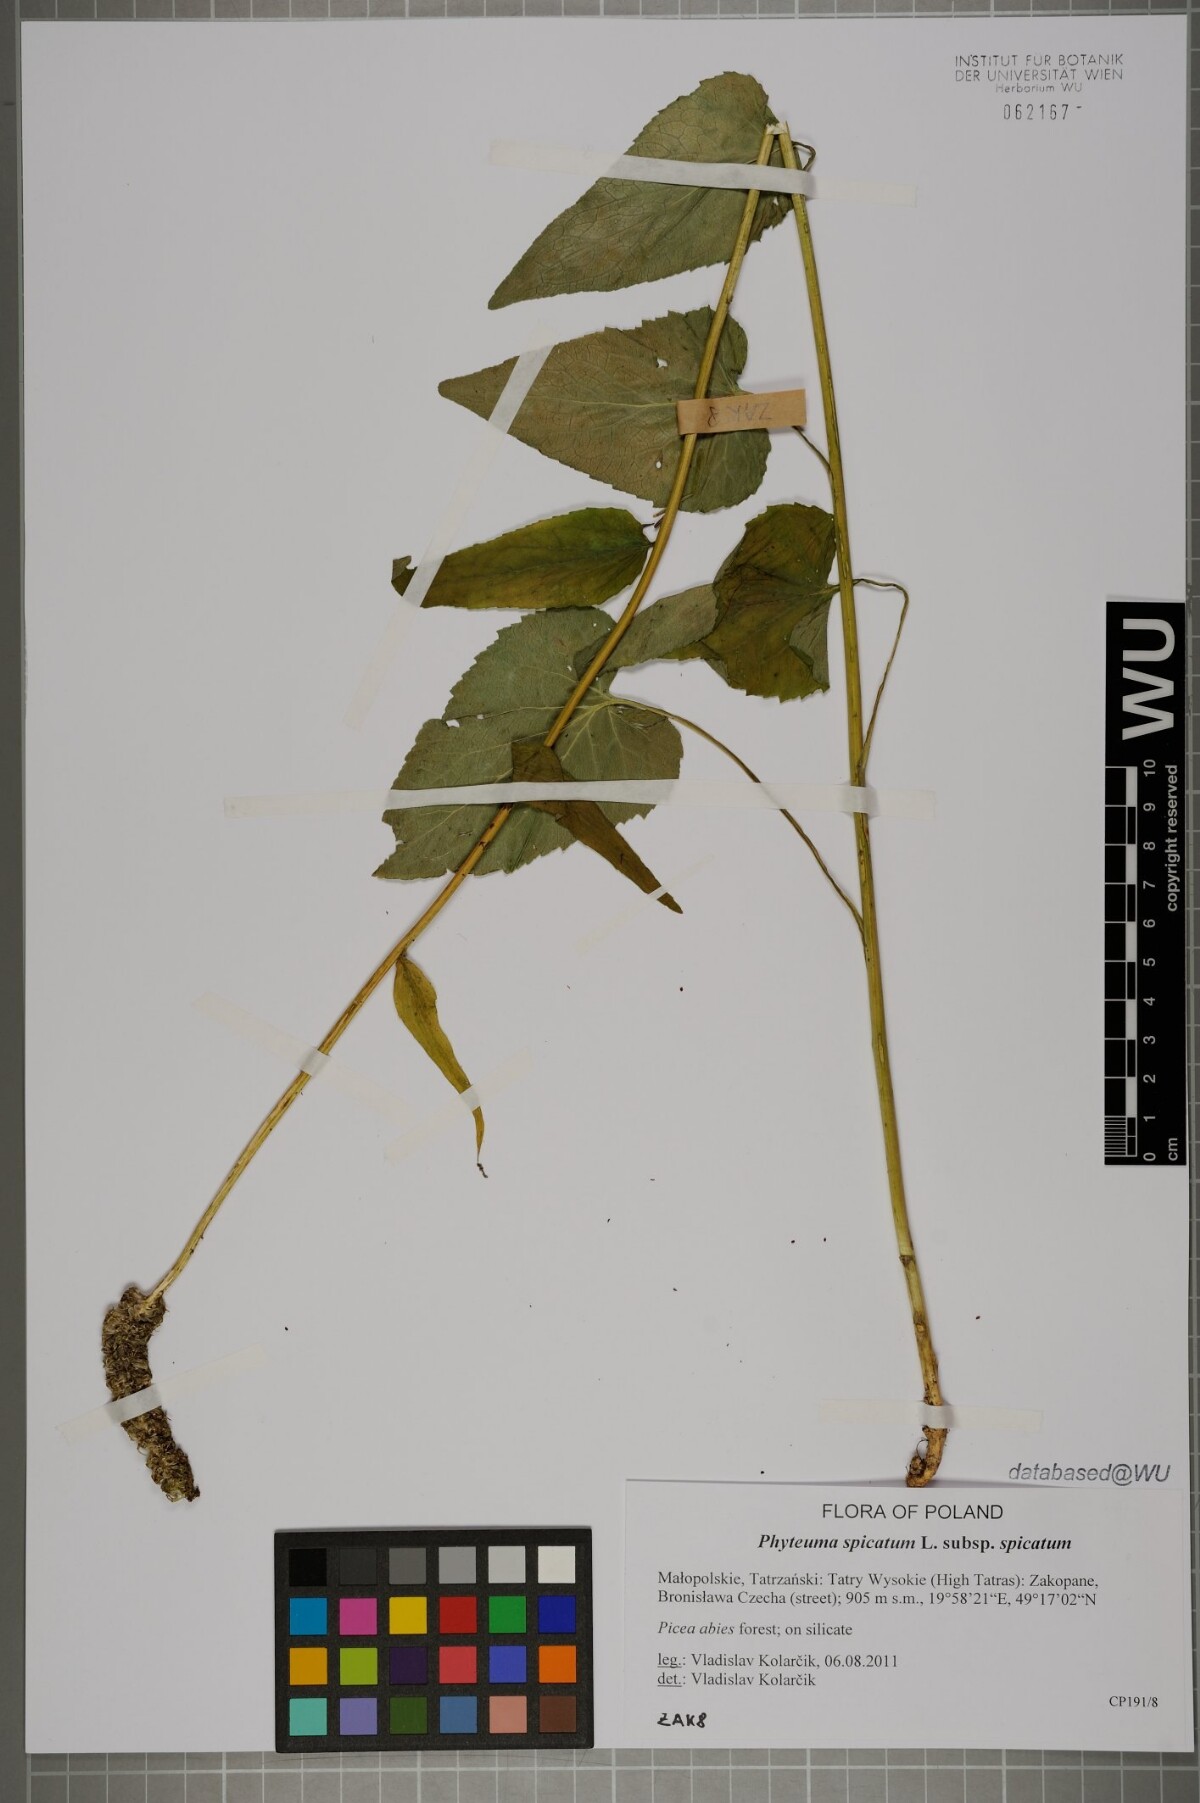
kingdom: Plantae
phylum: Tracheophyta
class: Magnoliopsida
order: Asterales
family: Campanulaceae
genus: Phyteuma
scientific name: Phyteuma spicatum
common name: Spiked rampion
